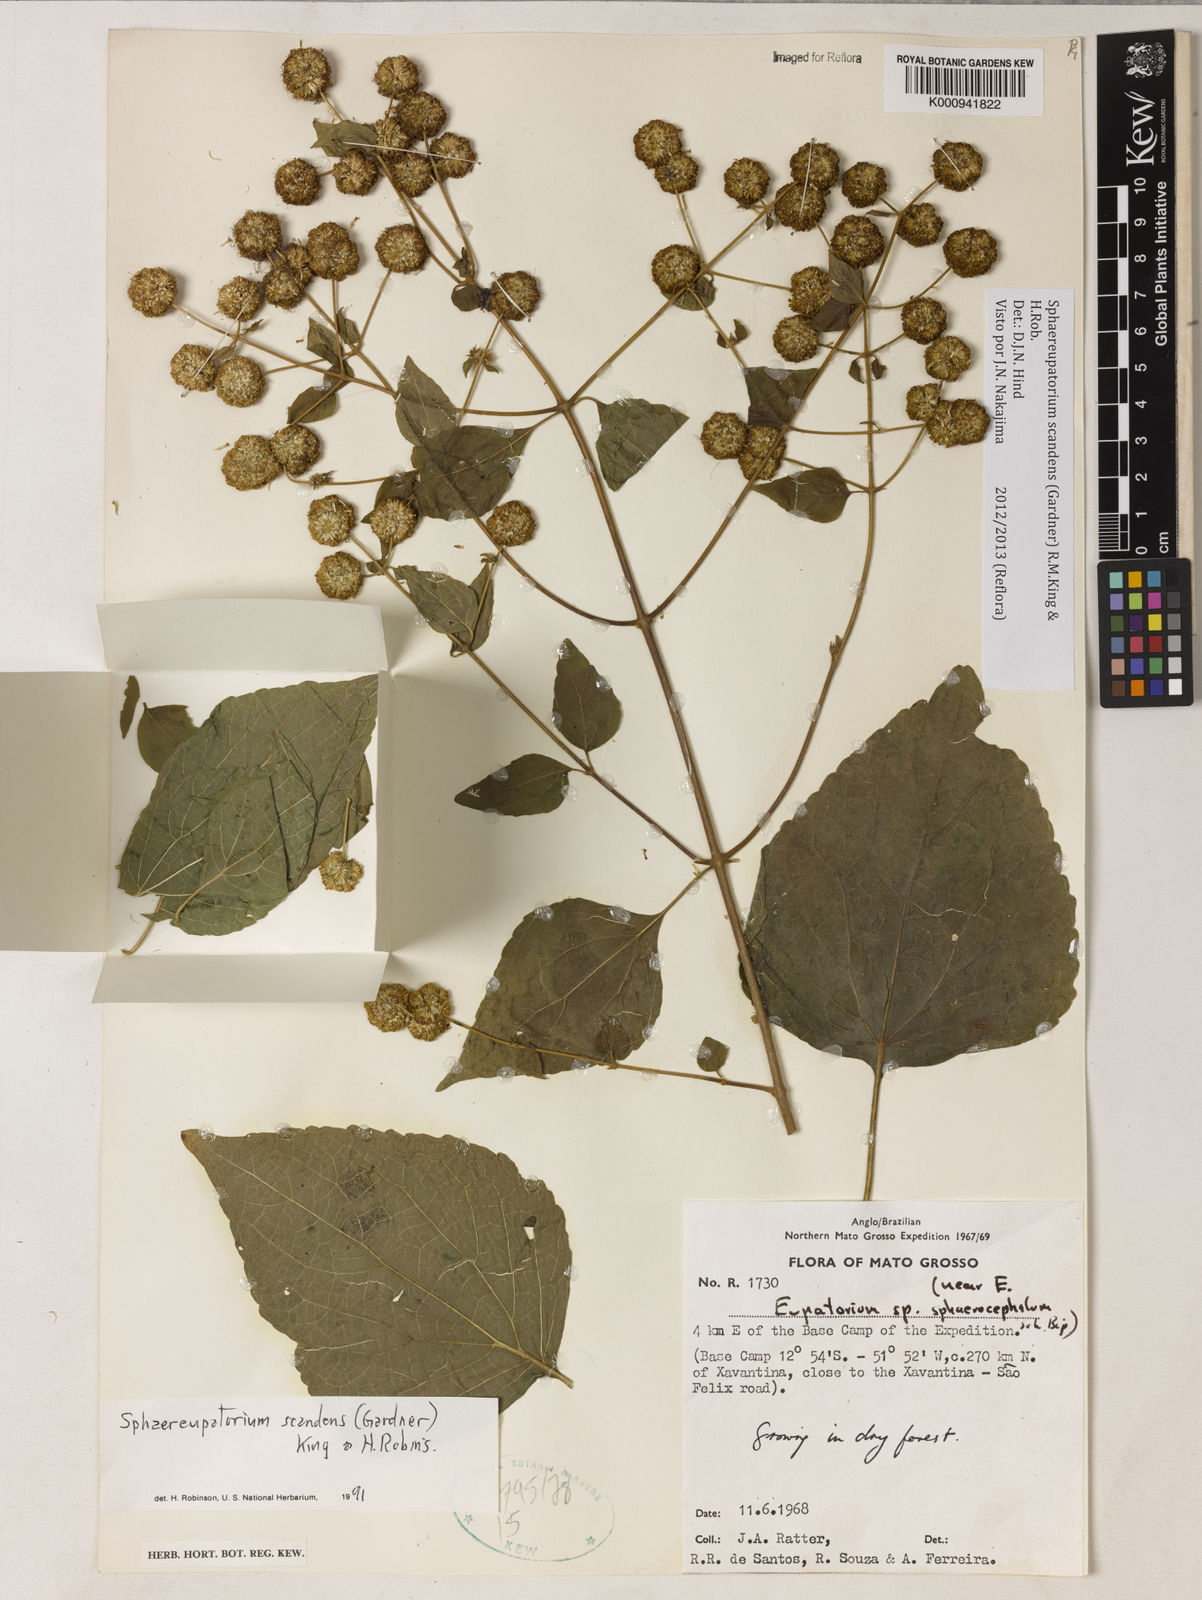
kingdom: Plantae
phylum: Tracheophyta
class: Magnoliopsida
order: Asterales
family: Asteraceae
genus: Sphaereupatorium
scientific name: Sphaereupatorium scandens
